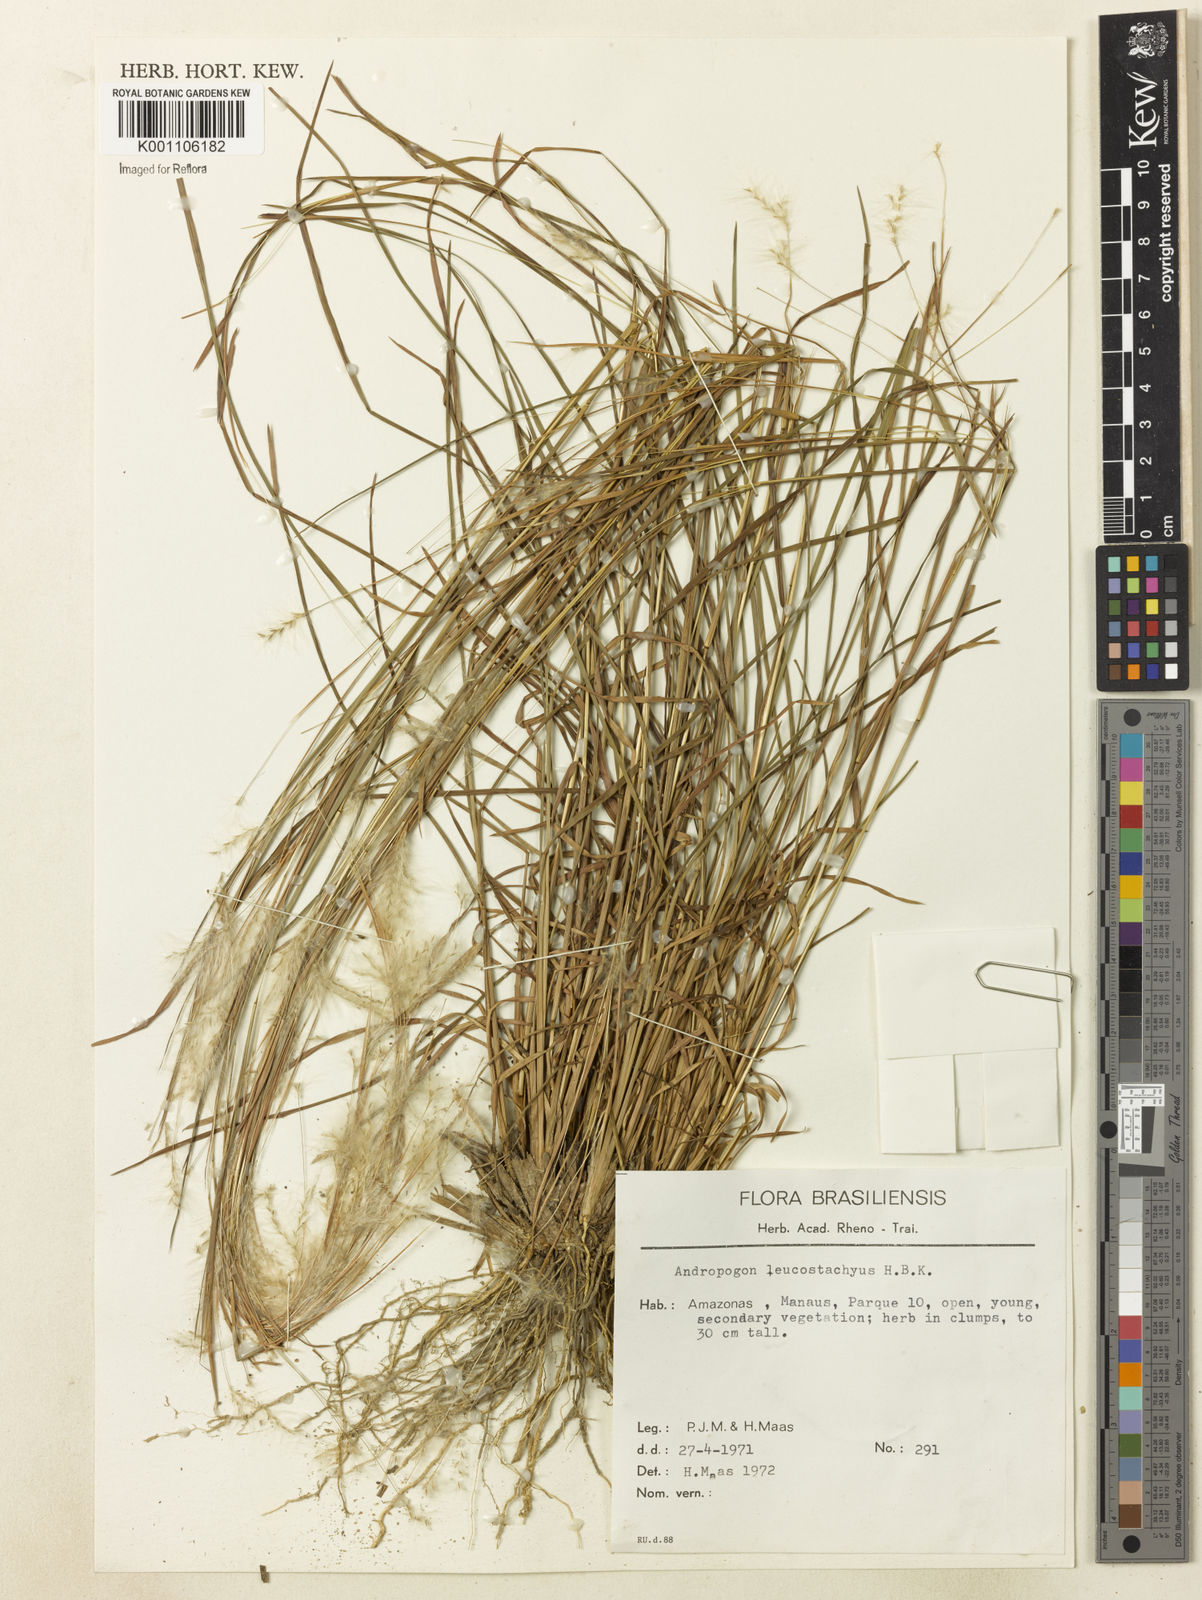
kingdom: Plantae
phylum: Tracheophyta
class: Liliopsida
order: Poales
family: Poaceae
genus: Andropogon
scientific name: Andropogon leucostachyus
